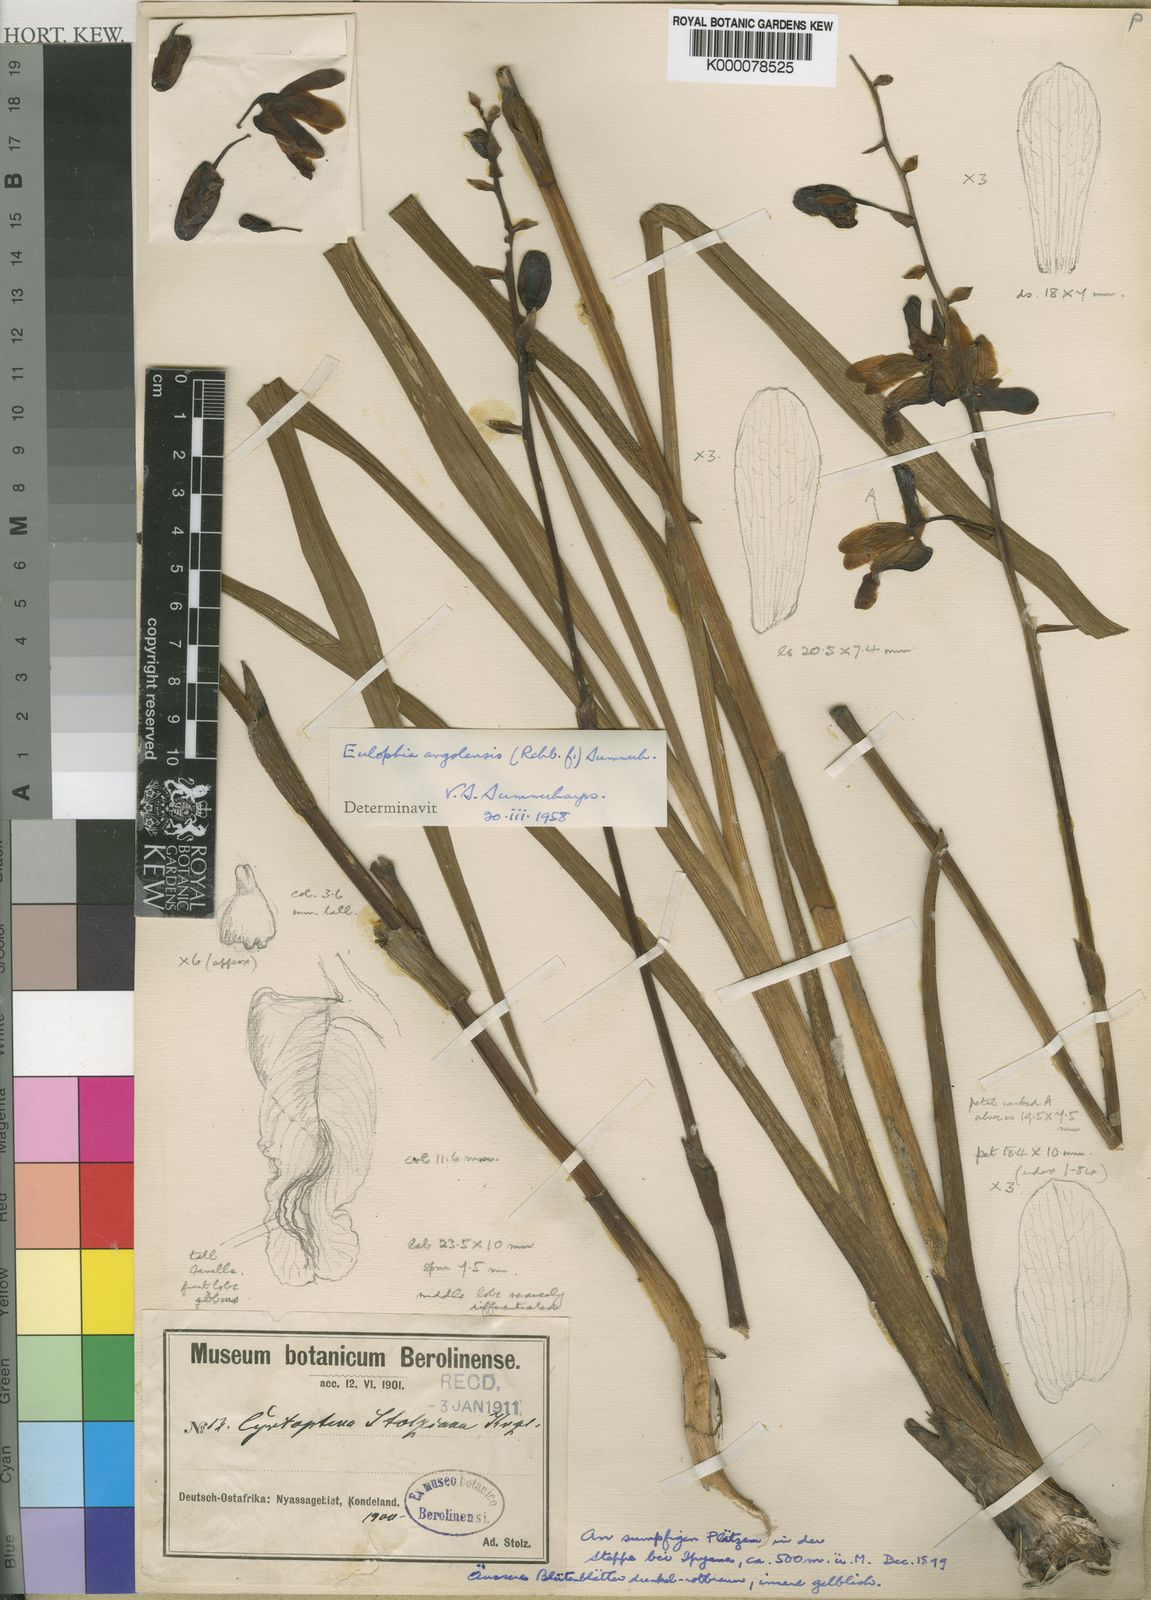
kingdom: Plantae
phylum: Tracheophyta
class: Liliopsida
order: Asparagales
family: Orchidaceae
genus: Eulophia
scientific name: Eulophia angolensis
